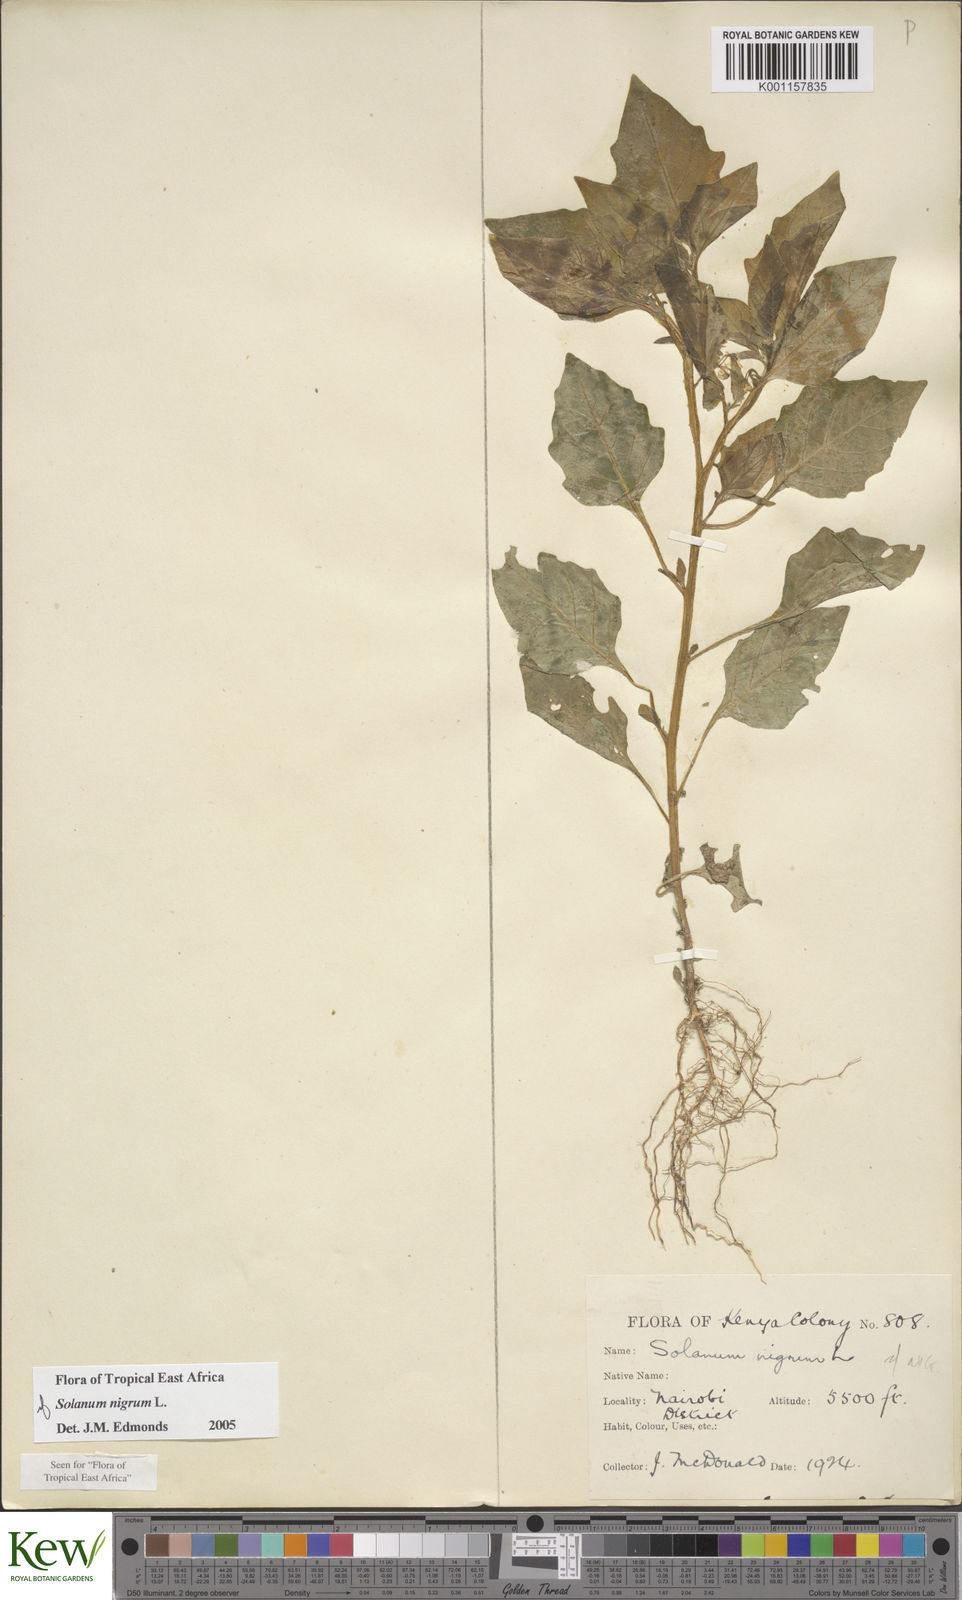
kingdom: Plantae
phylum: Tracheophyta
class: Magnoliopsida
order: Solanales
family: Solanaceae
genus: Solanum
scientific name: Solanum nigrum
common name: Black nightshade
